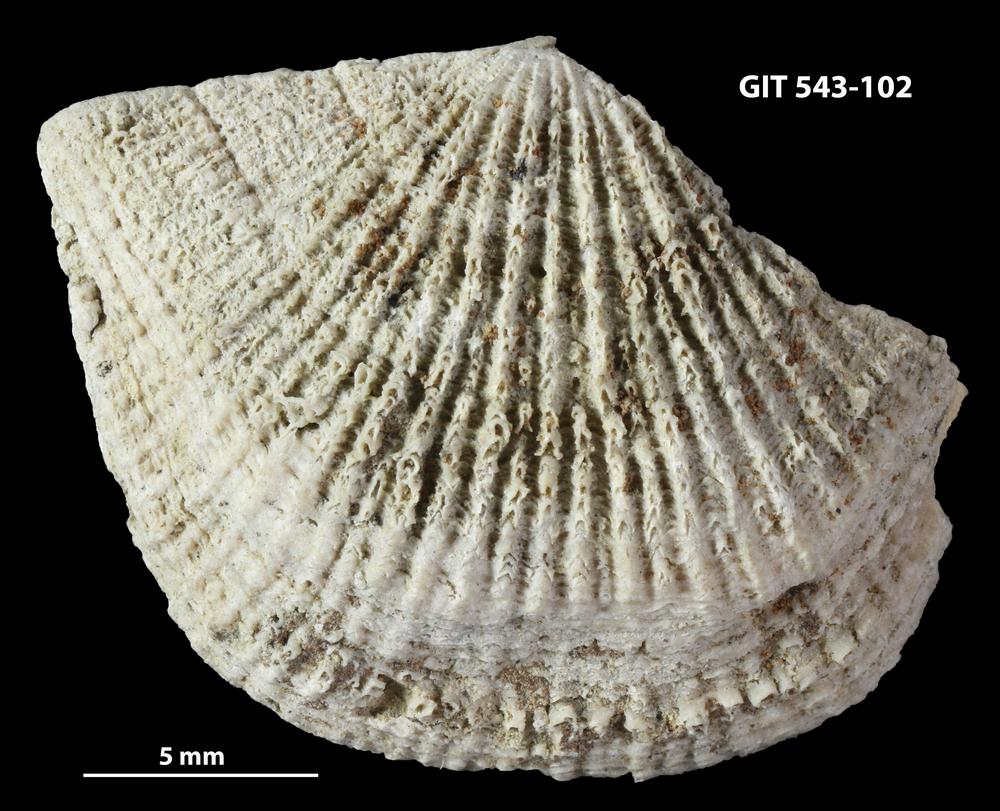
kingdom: Animalia
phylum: Brachiopoda
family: Gonambonitidae
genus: Estlandia
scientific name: Estlandia Orthisina marginata
